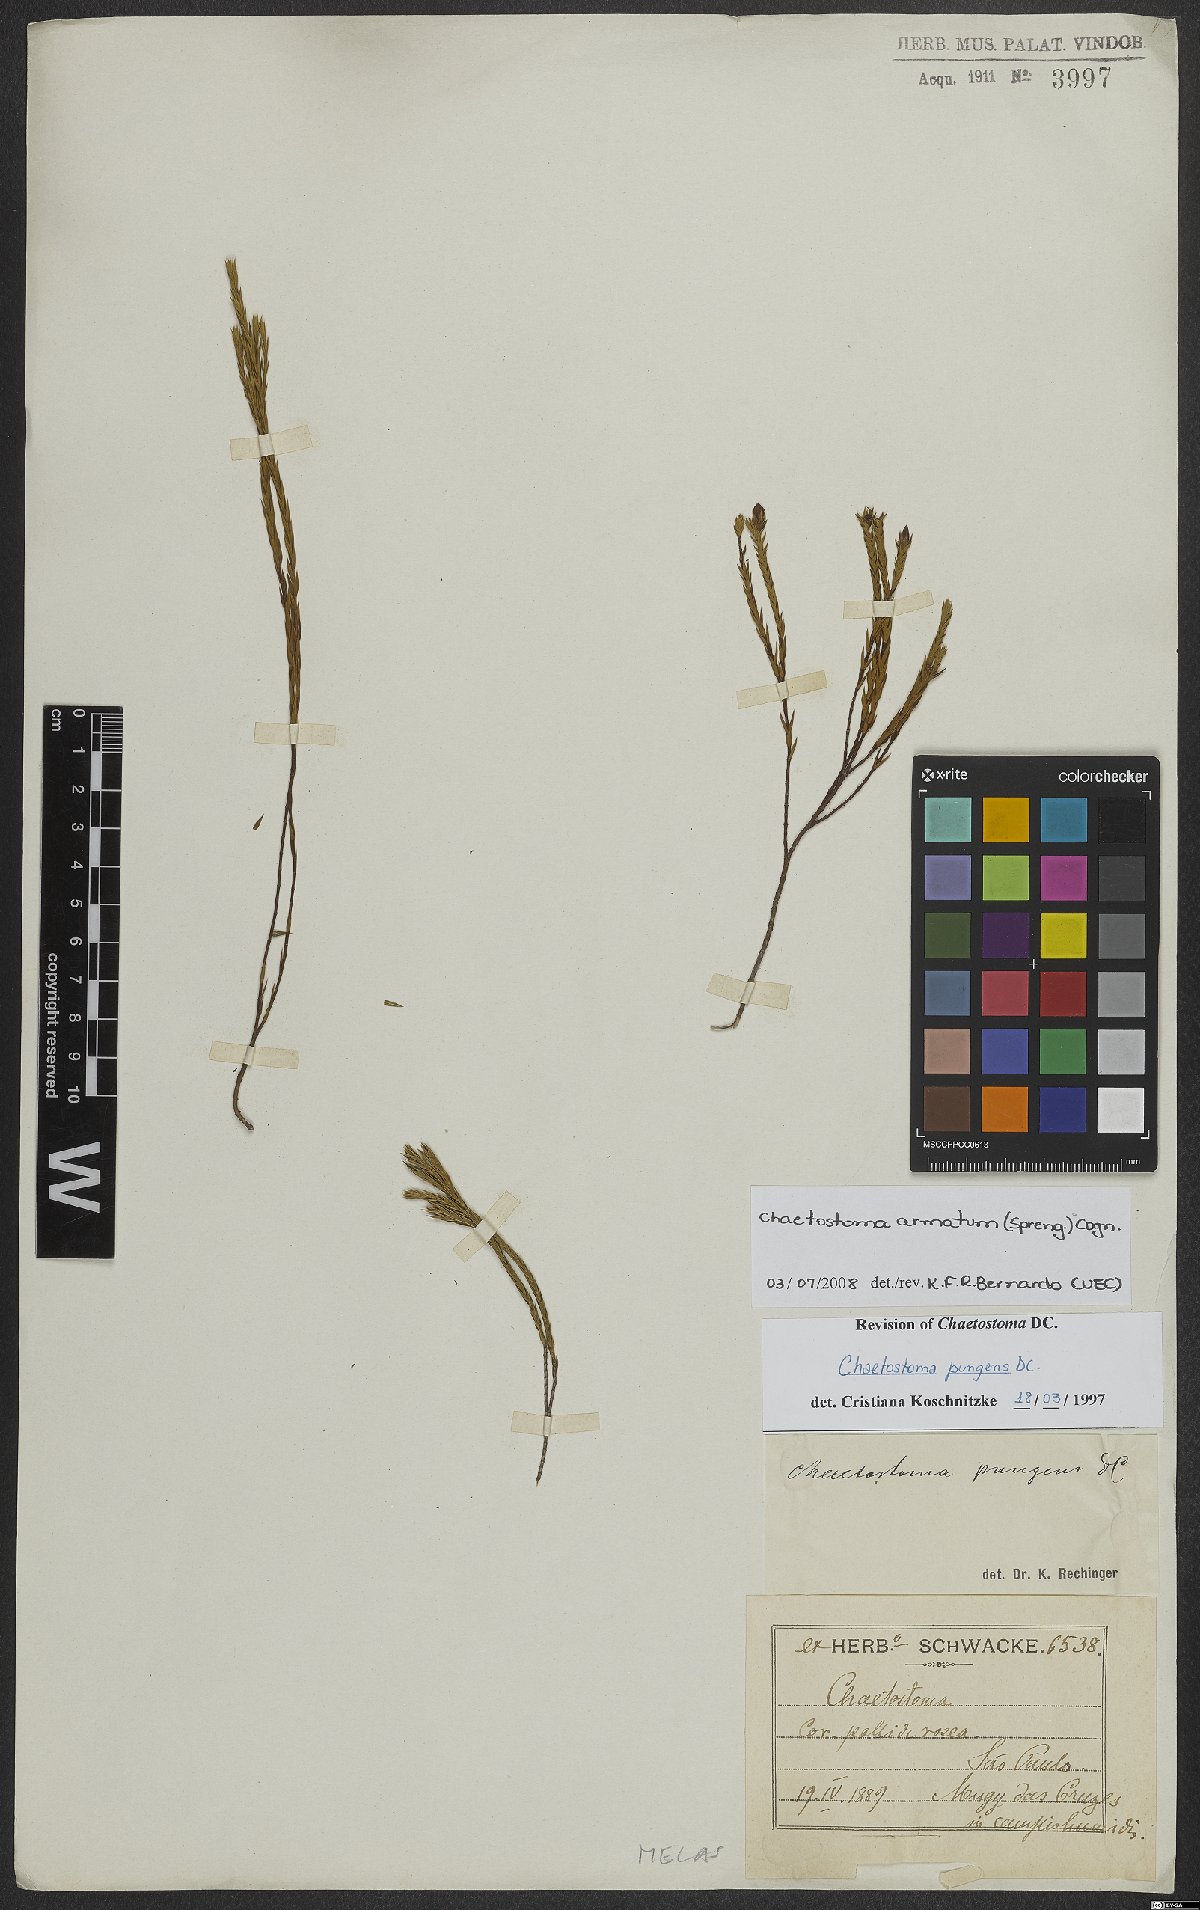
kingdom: Plantae
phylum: Tracheophyta
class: Magnoliopsida
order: Myrtales
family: Melastomataceae
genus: Microlicia
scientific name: Microlicia armata
